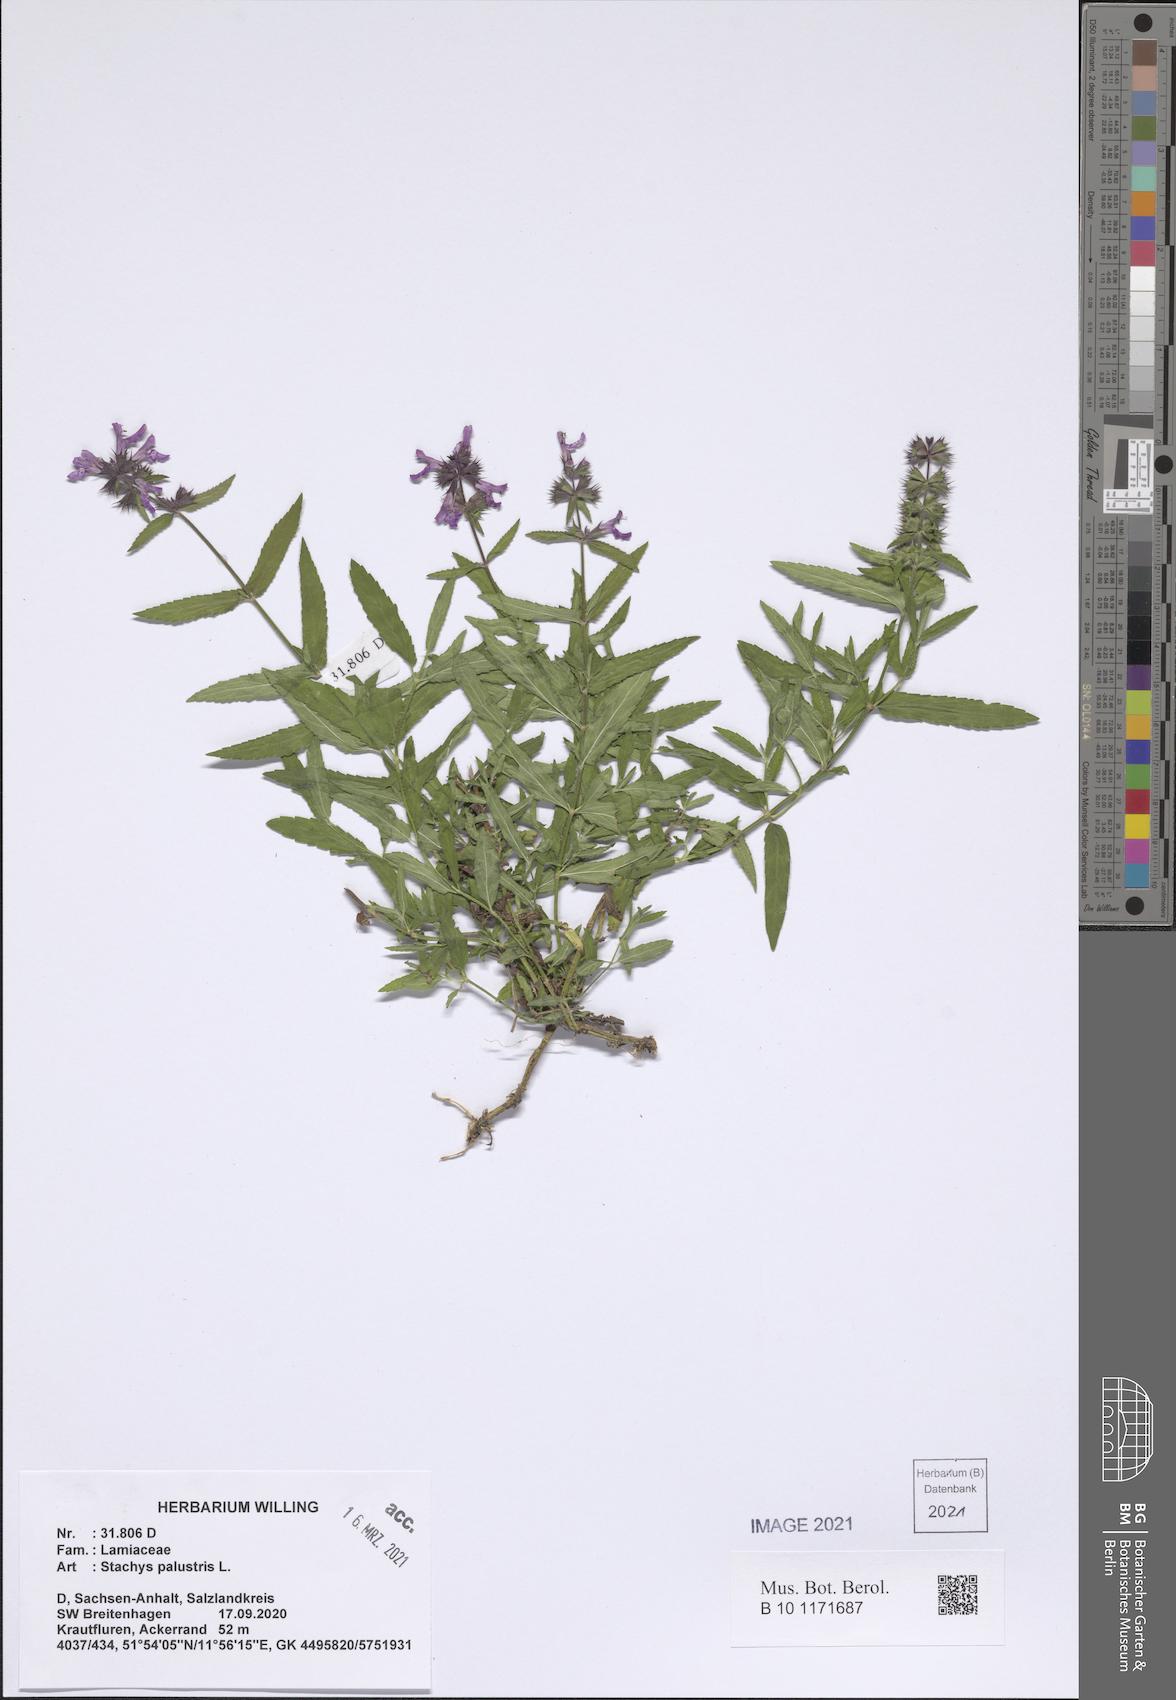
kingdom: Plantae
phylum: Tracheophyta
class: Magnoliopsida
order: Lamiales
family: Lamiaceae
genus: Stachys
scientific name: Stachys palustris
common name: Marsh woundwort
